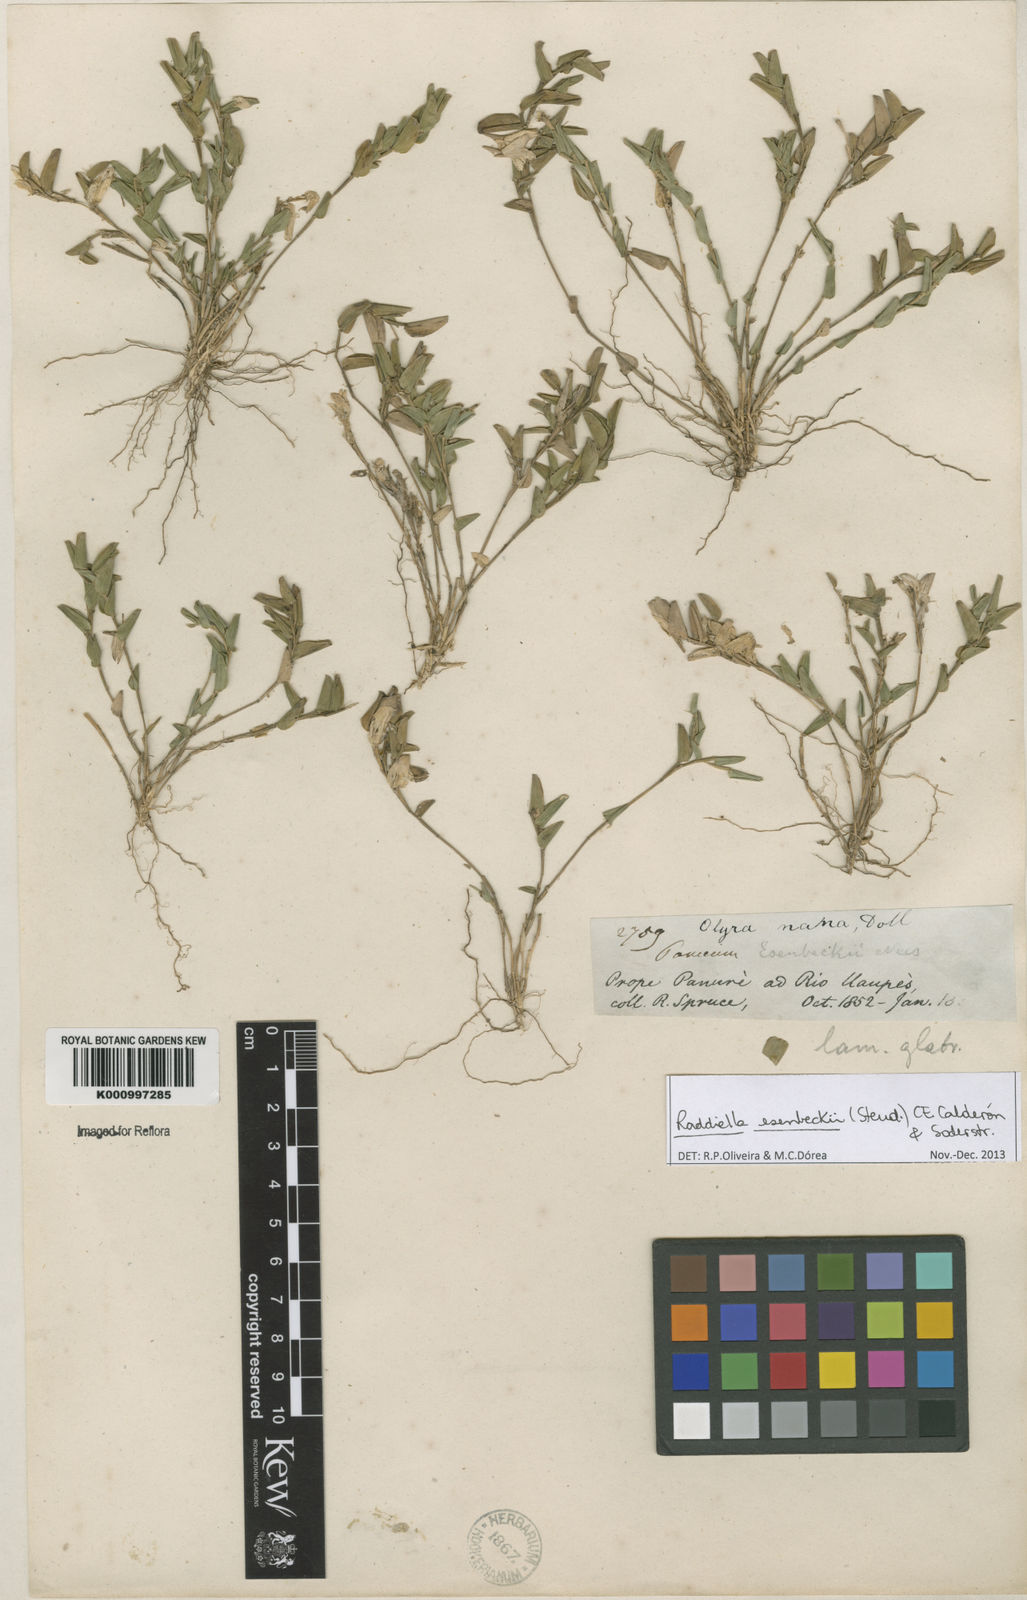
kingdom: Plantae
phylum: Tracheophyta
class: Liliopsida
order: Poales
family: Poaceae
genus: Raddiella
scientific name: Raddiella
